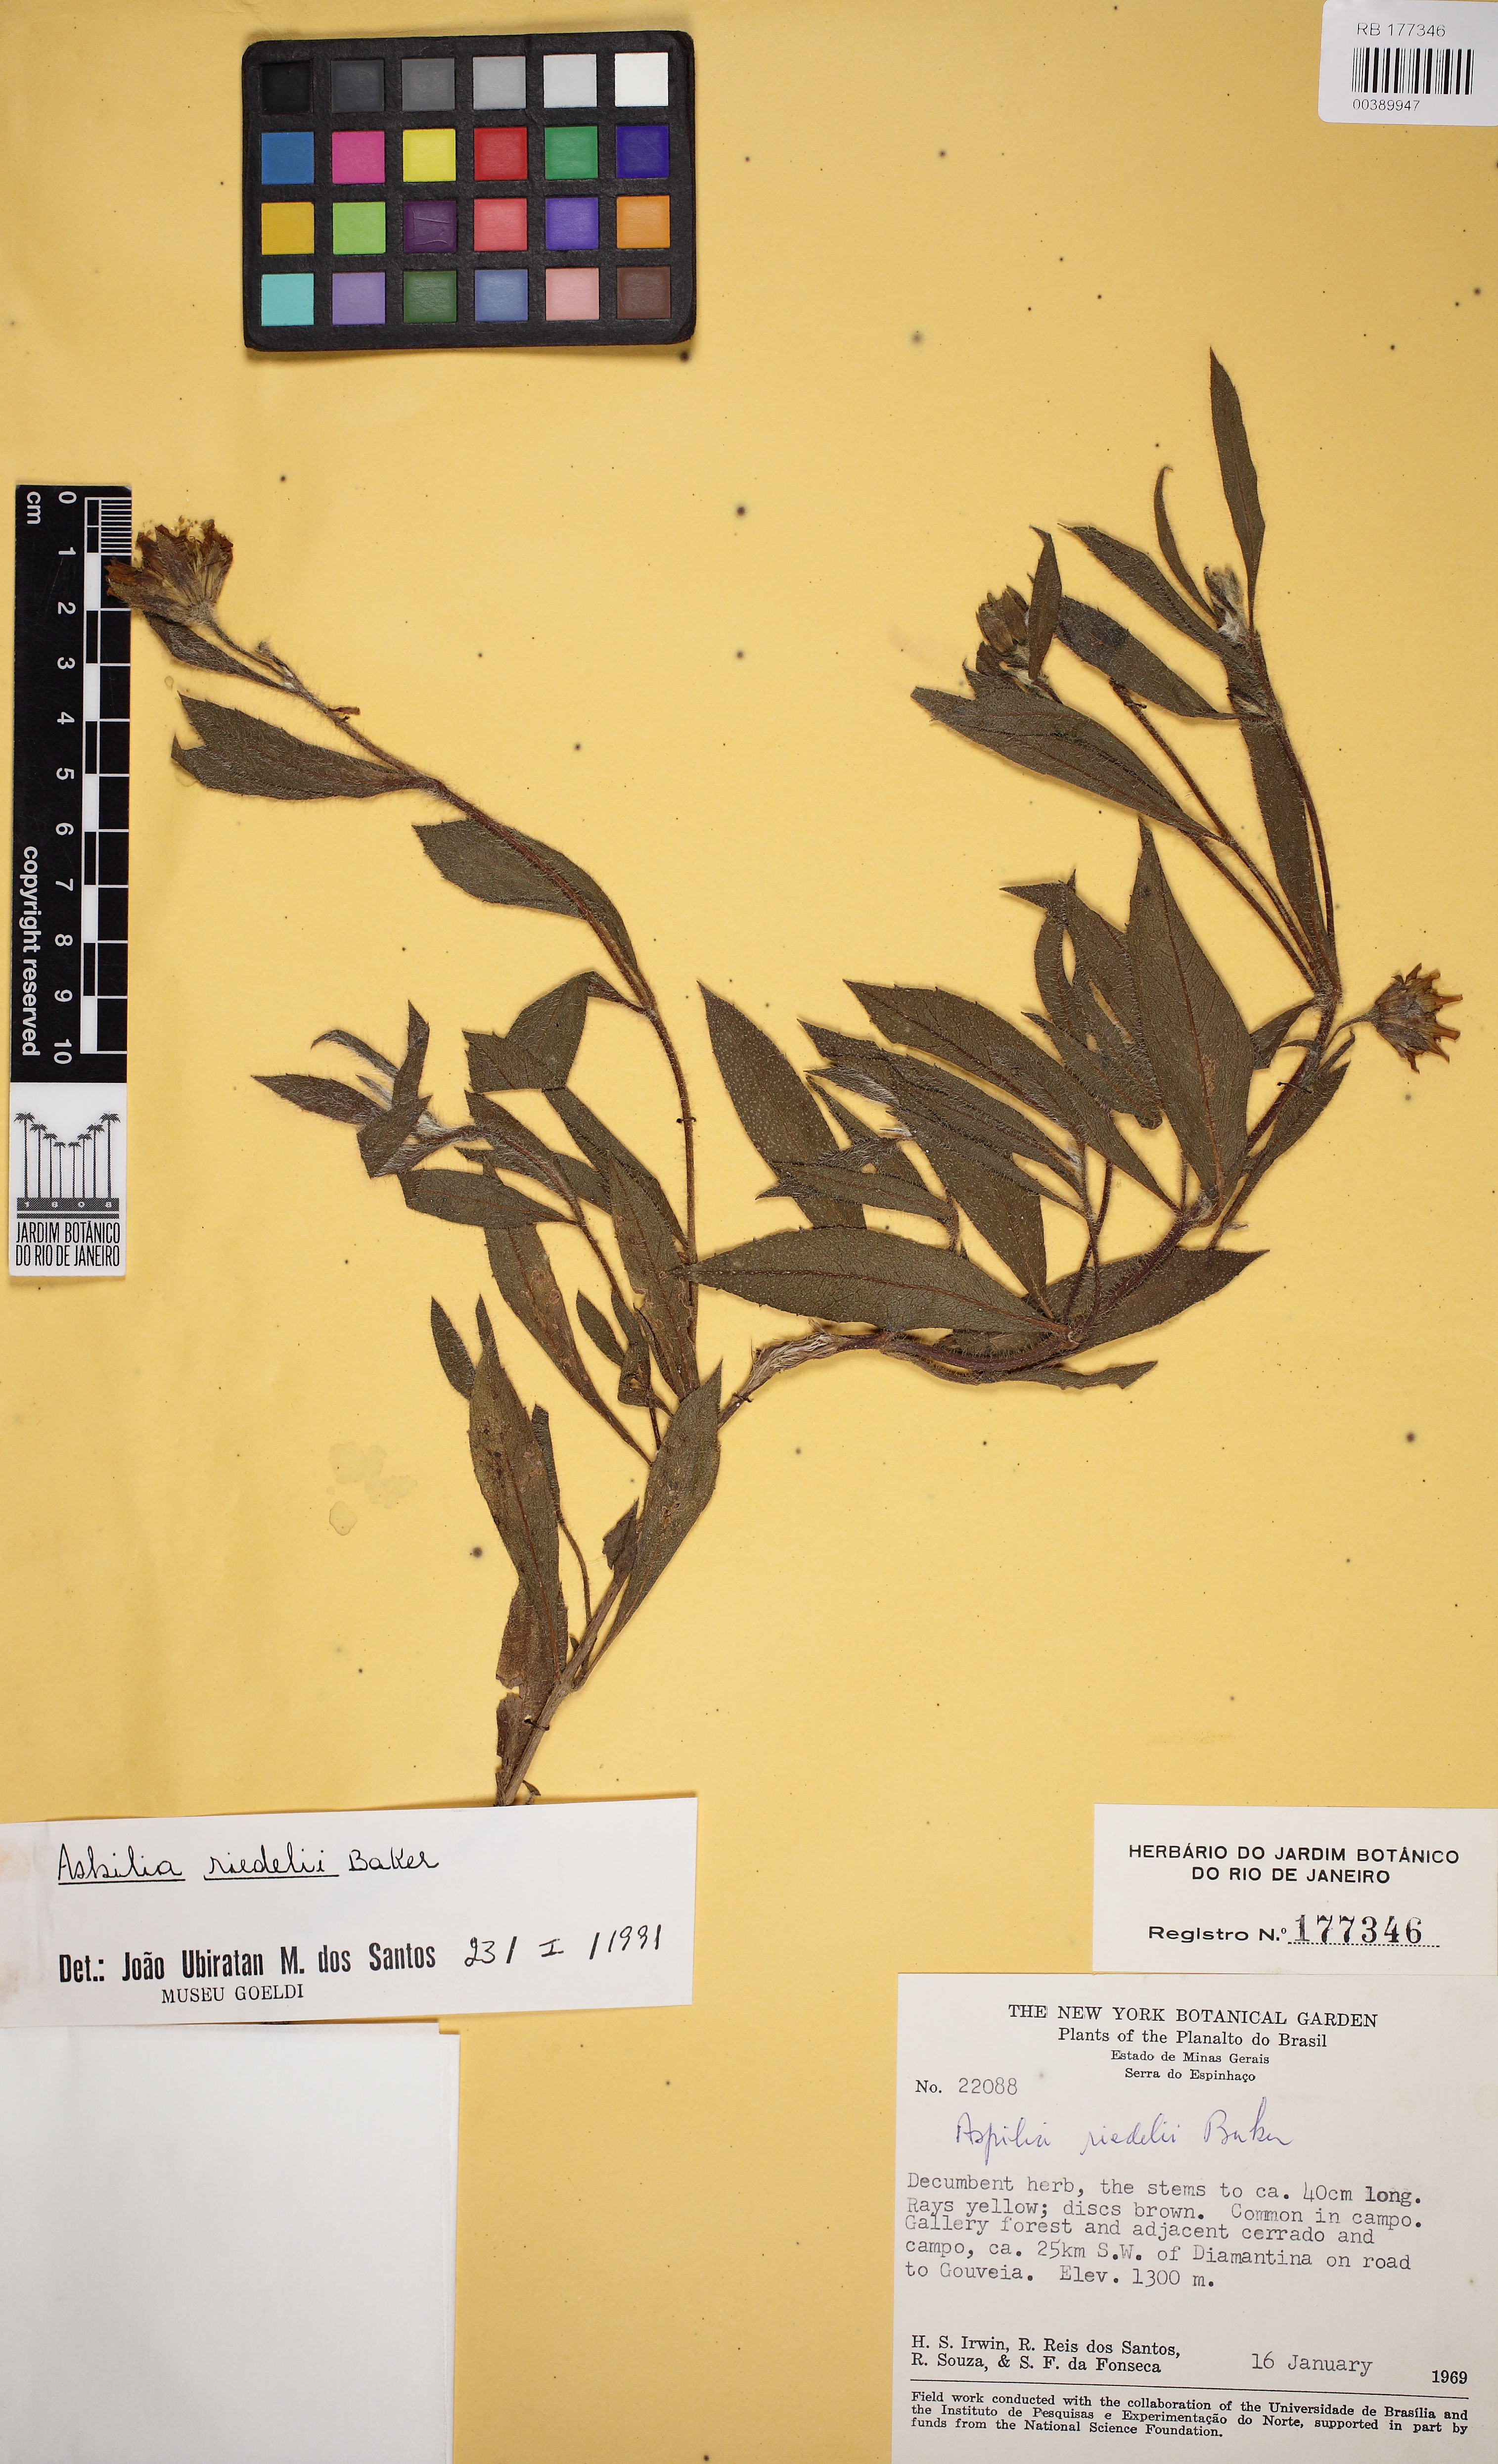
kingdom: Plantae
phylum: Tracheophyta
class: Magnoliopsida
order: Asterales
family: Asteraceae
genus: Wedelia
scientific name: Wedelia riedellii
